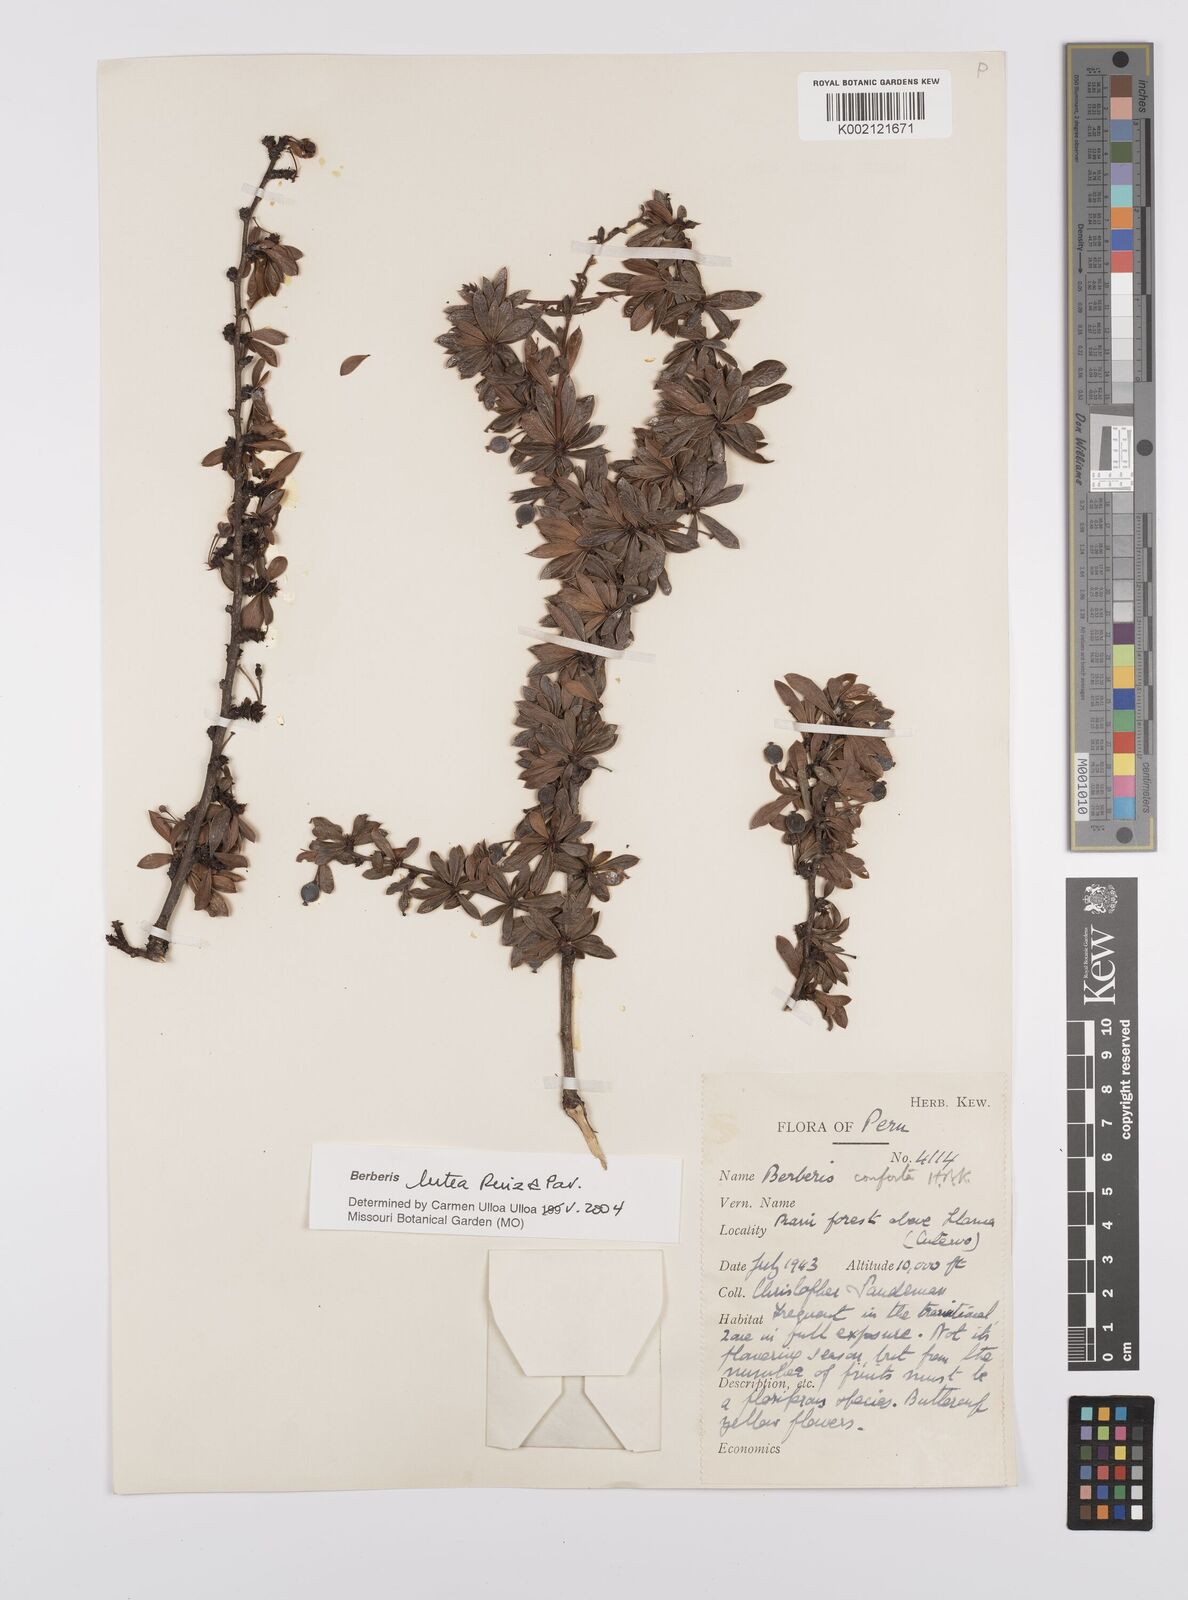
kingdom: Plantae
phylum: Tracheophyta
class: Magnoliopsida
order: Ranunculales
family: Berberidaceae
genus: Berberis
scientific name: Berberis lutea
